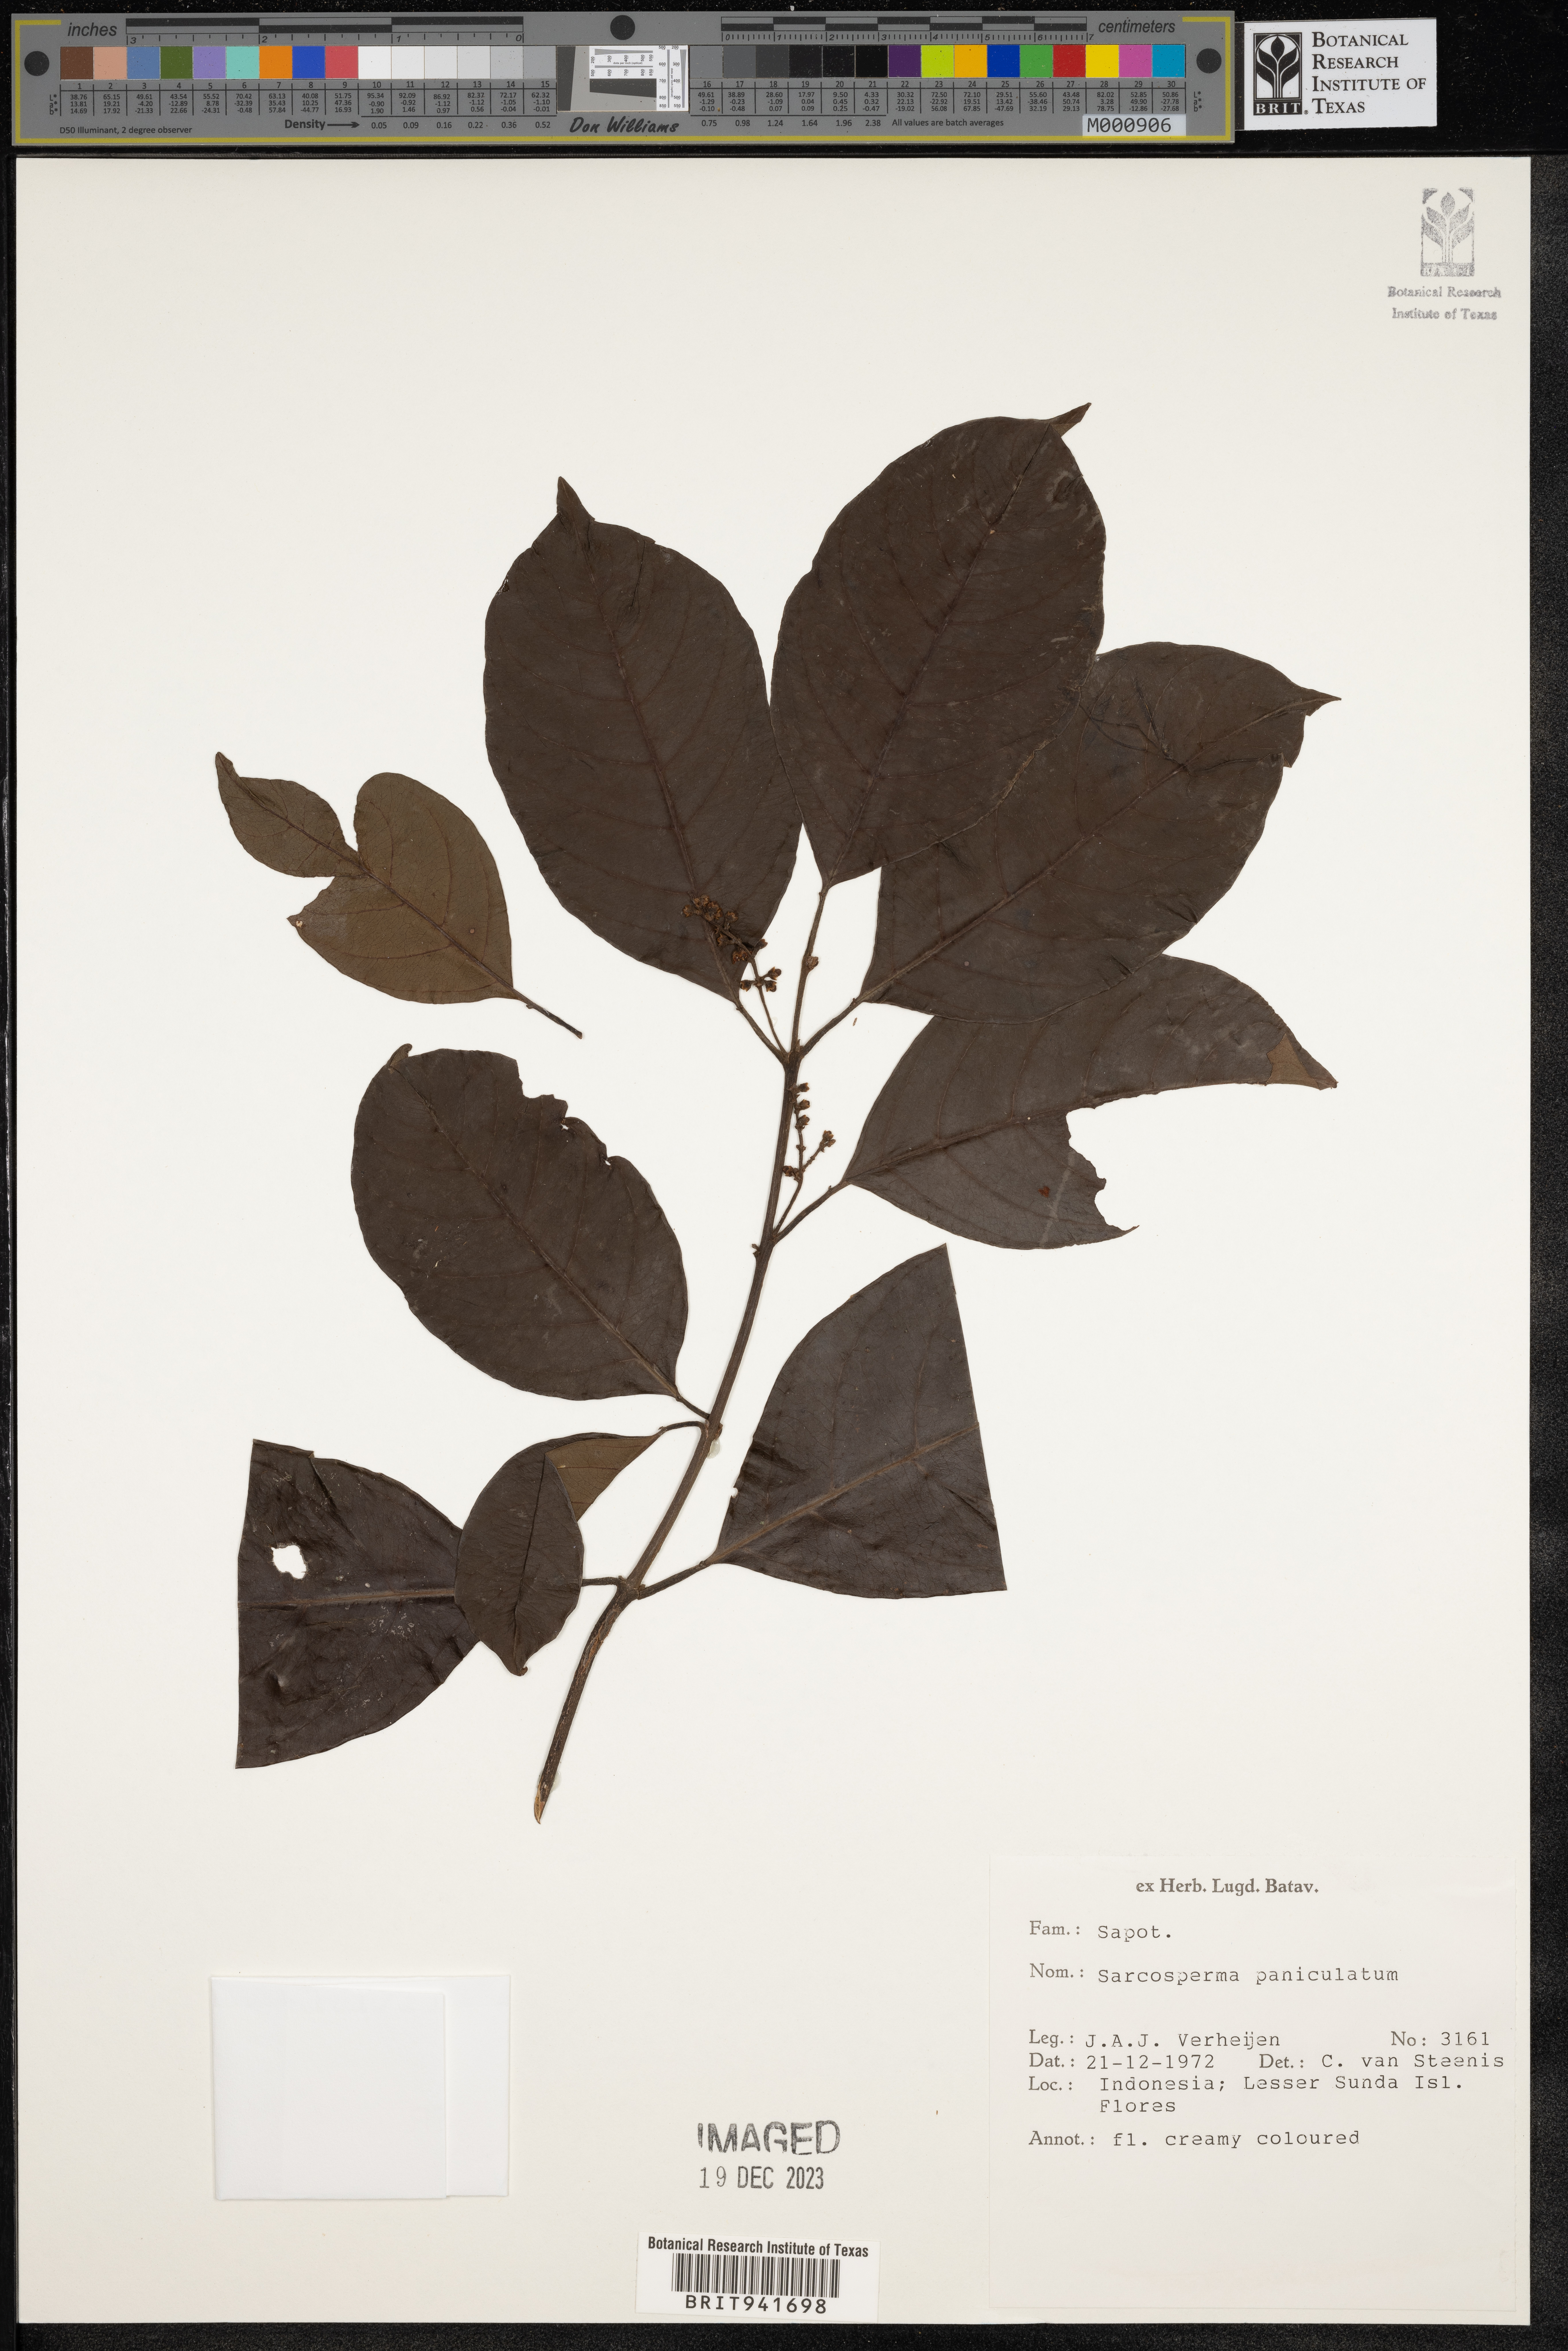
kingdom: Plantae
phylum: Tracheophyta
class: Magnoliopsida
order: Ericales
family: Sapotaceae
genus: Sarcosperma
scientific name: Sarcosperma
